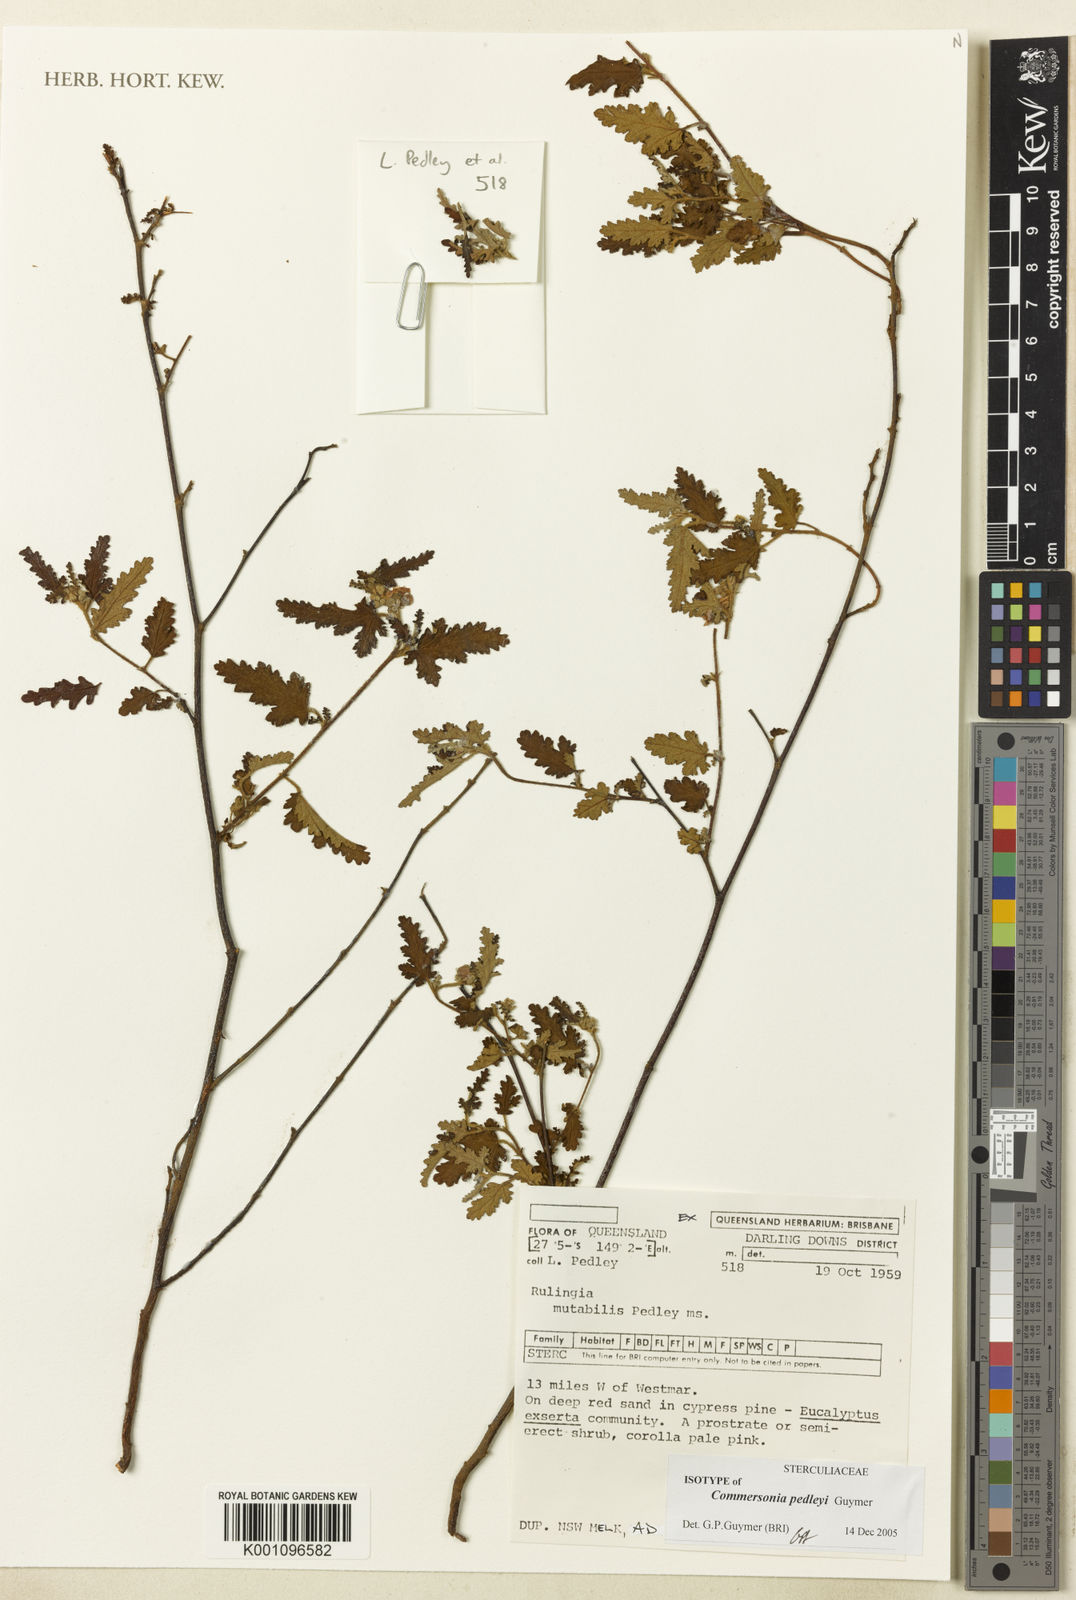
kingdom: Plantae
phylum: Tracheophyta
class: Magnoliopsida
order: Malvales
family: Malvaceae
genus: Androcalva
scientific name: Androcalva pedleyi
